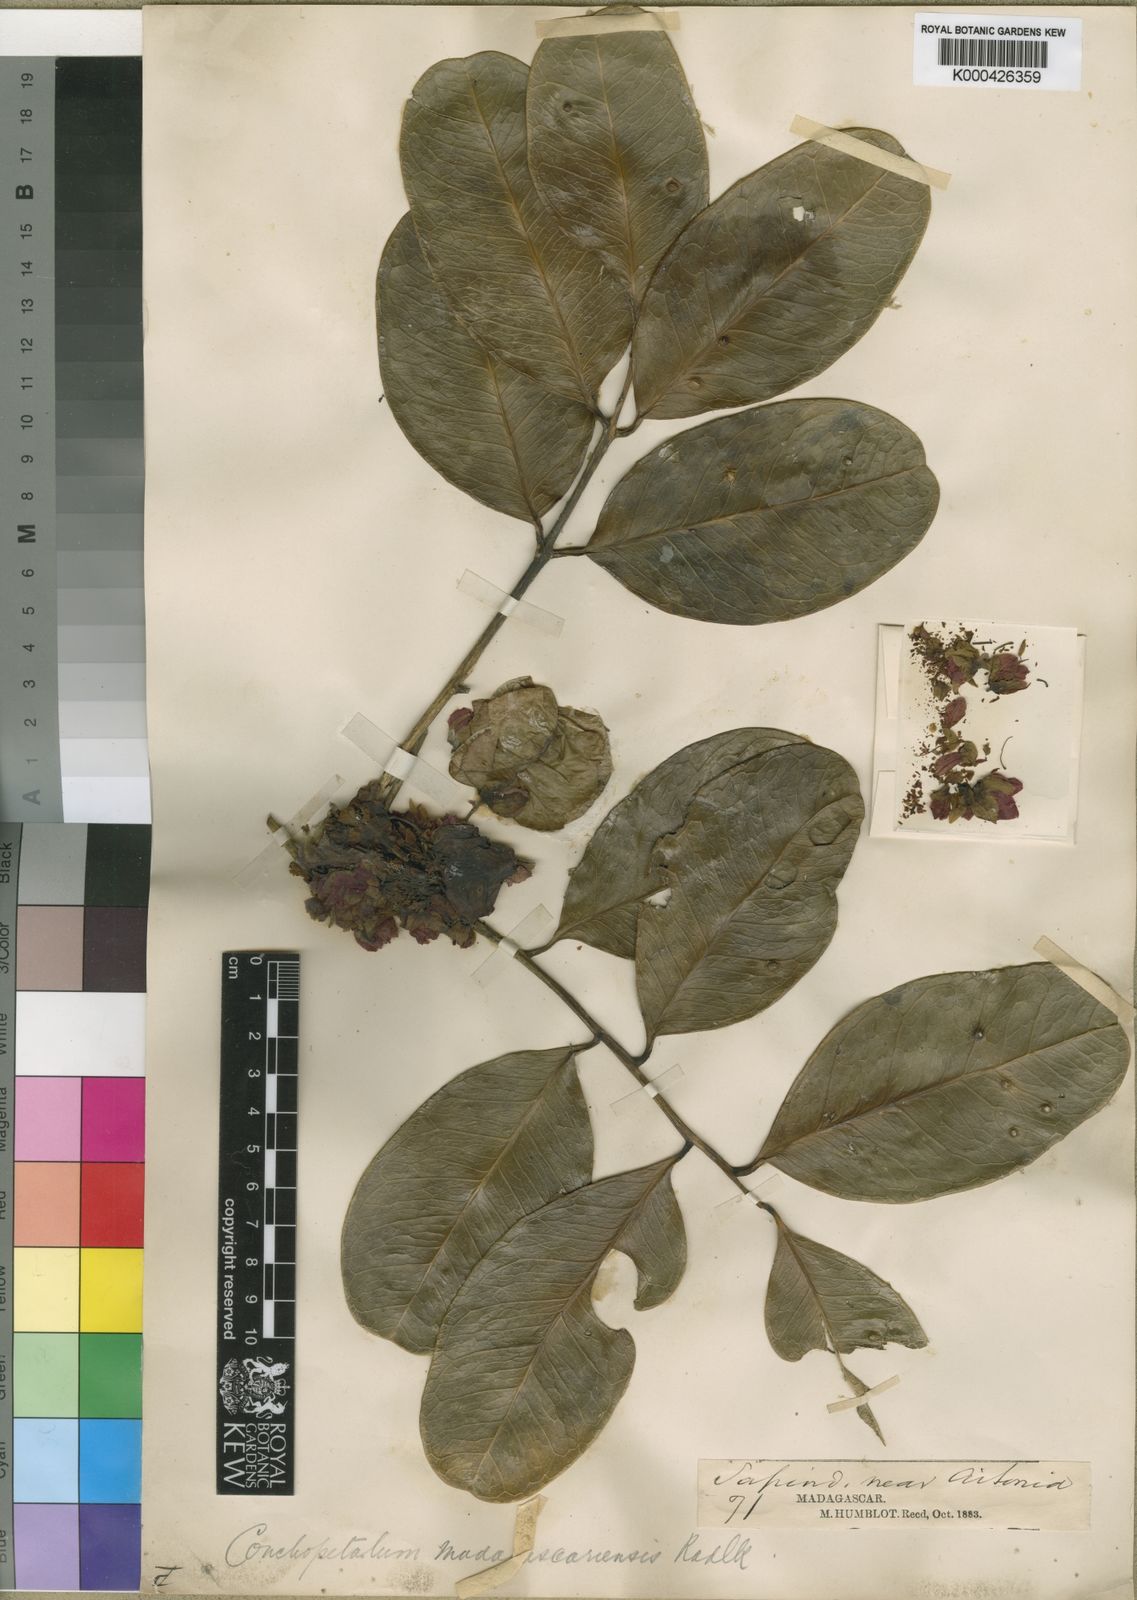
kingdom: Plantae
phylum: Tracheophyta
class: Magnoliopsida
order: Sapindales
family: Sapindaceae
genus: Conchopetalum
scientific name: Conchopetalum madagascariense
